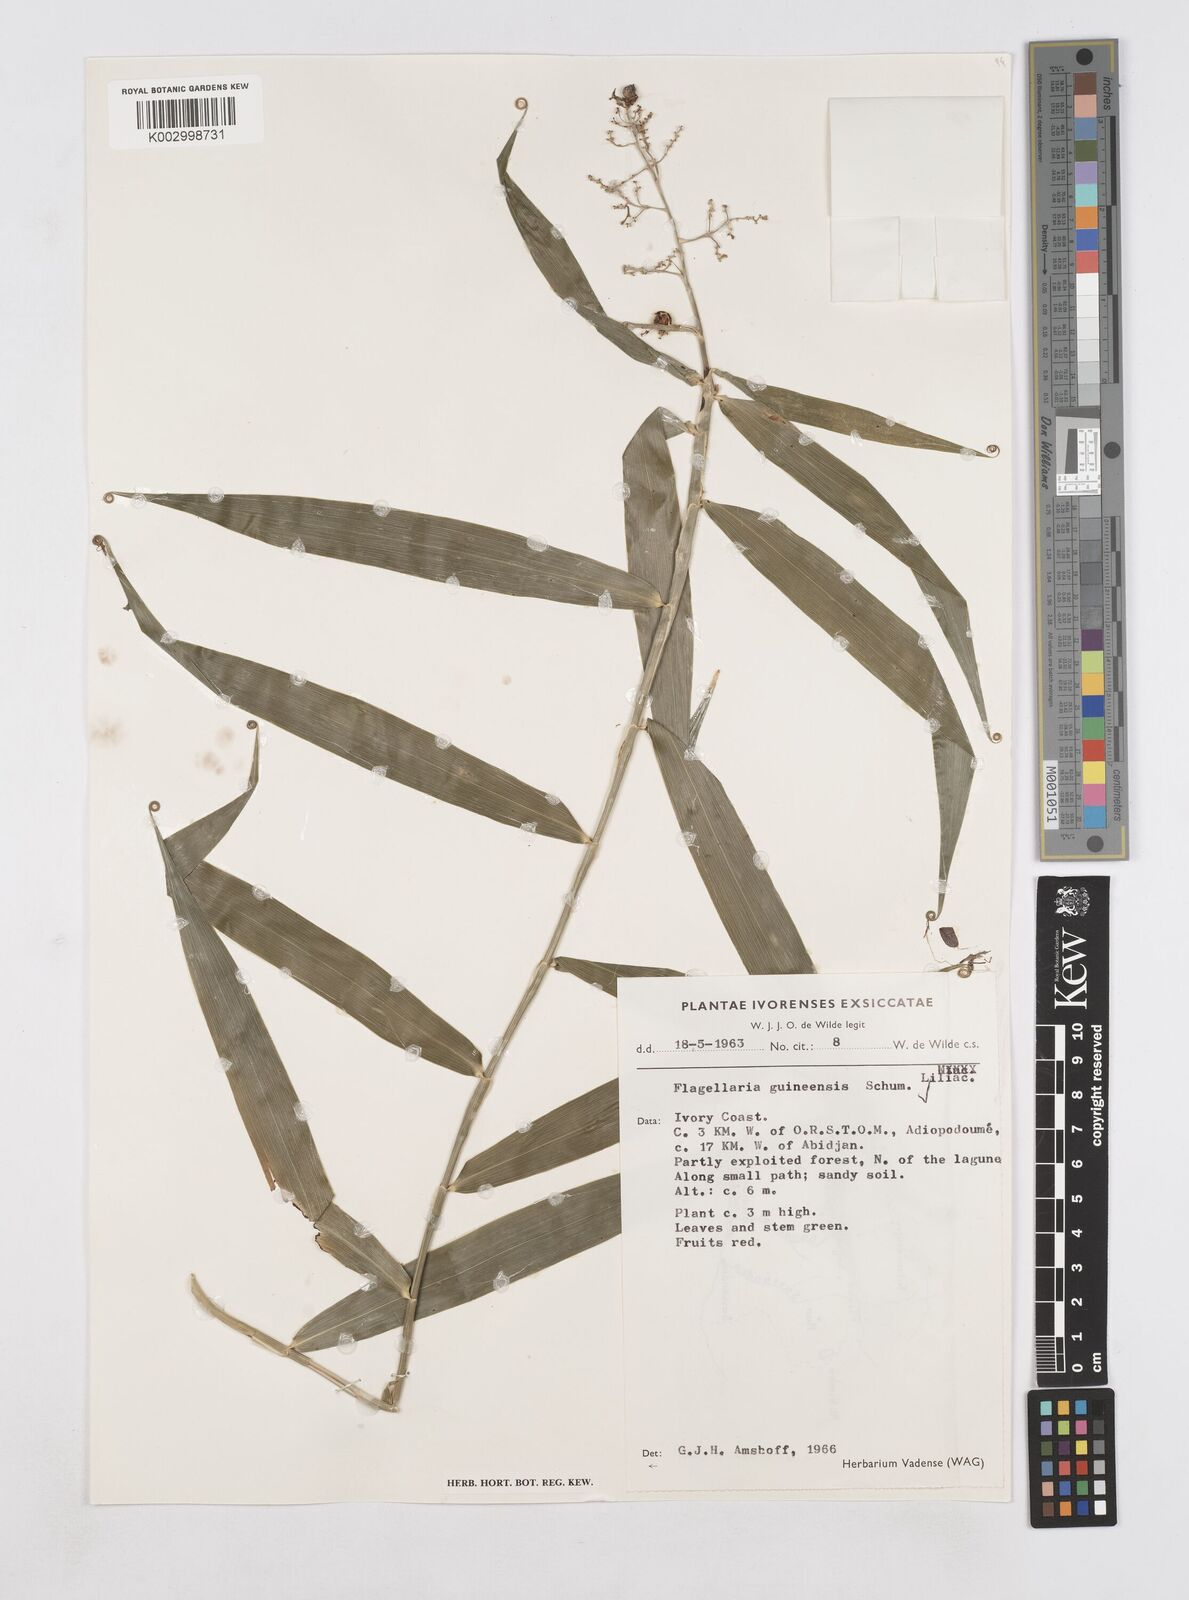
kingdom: Plantae
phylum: Tracheophyta
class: Liliopsida
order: Poales
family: Flagellariaceae
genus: Flagellaria
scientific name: Flagellaria guineensis
